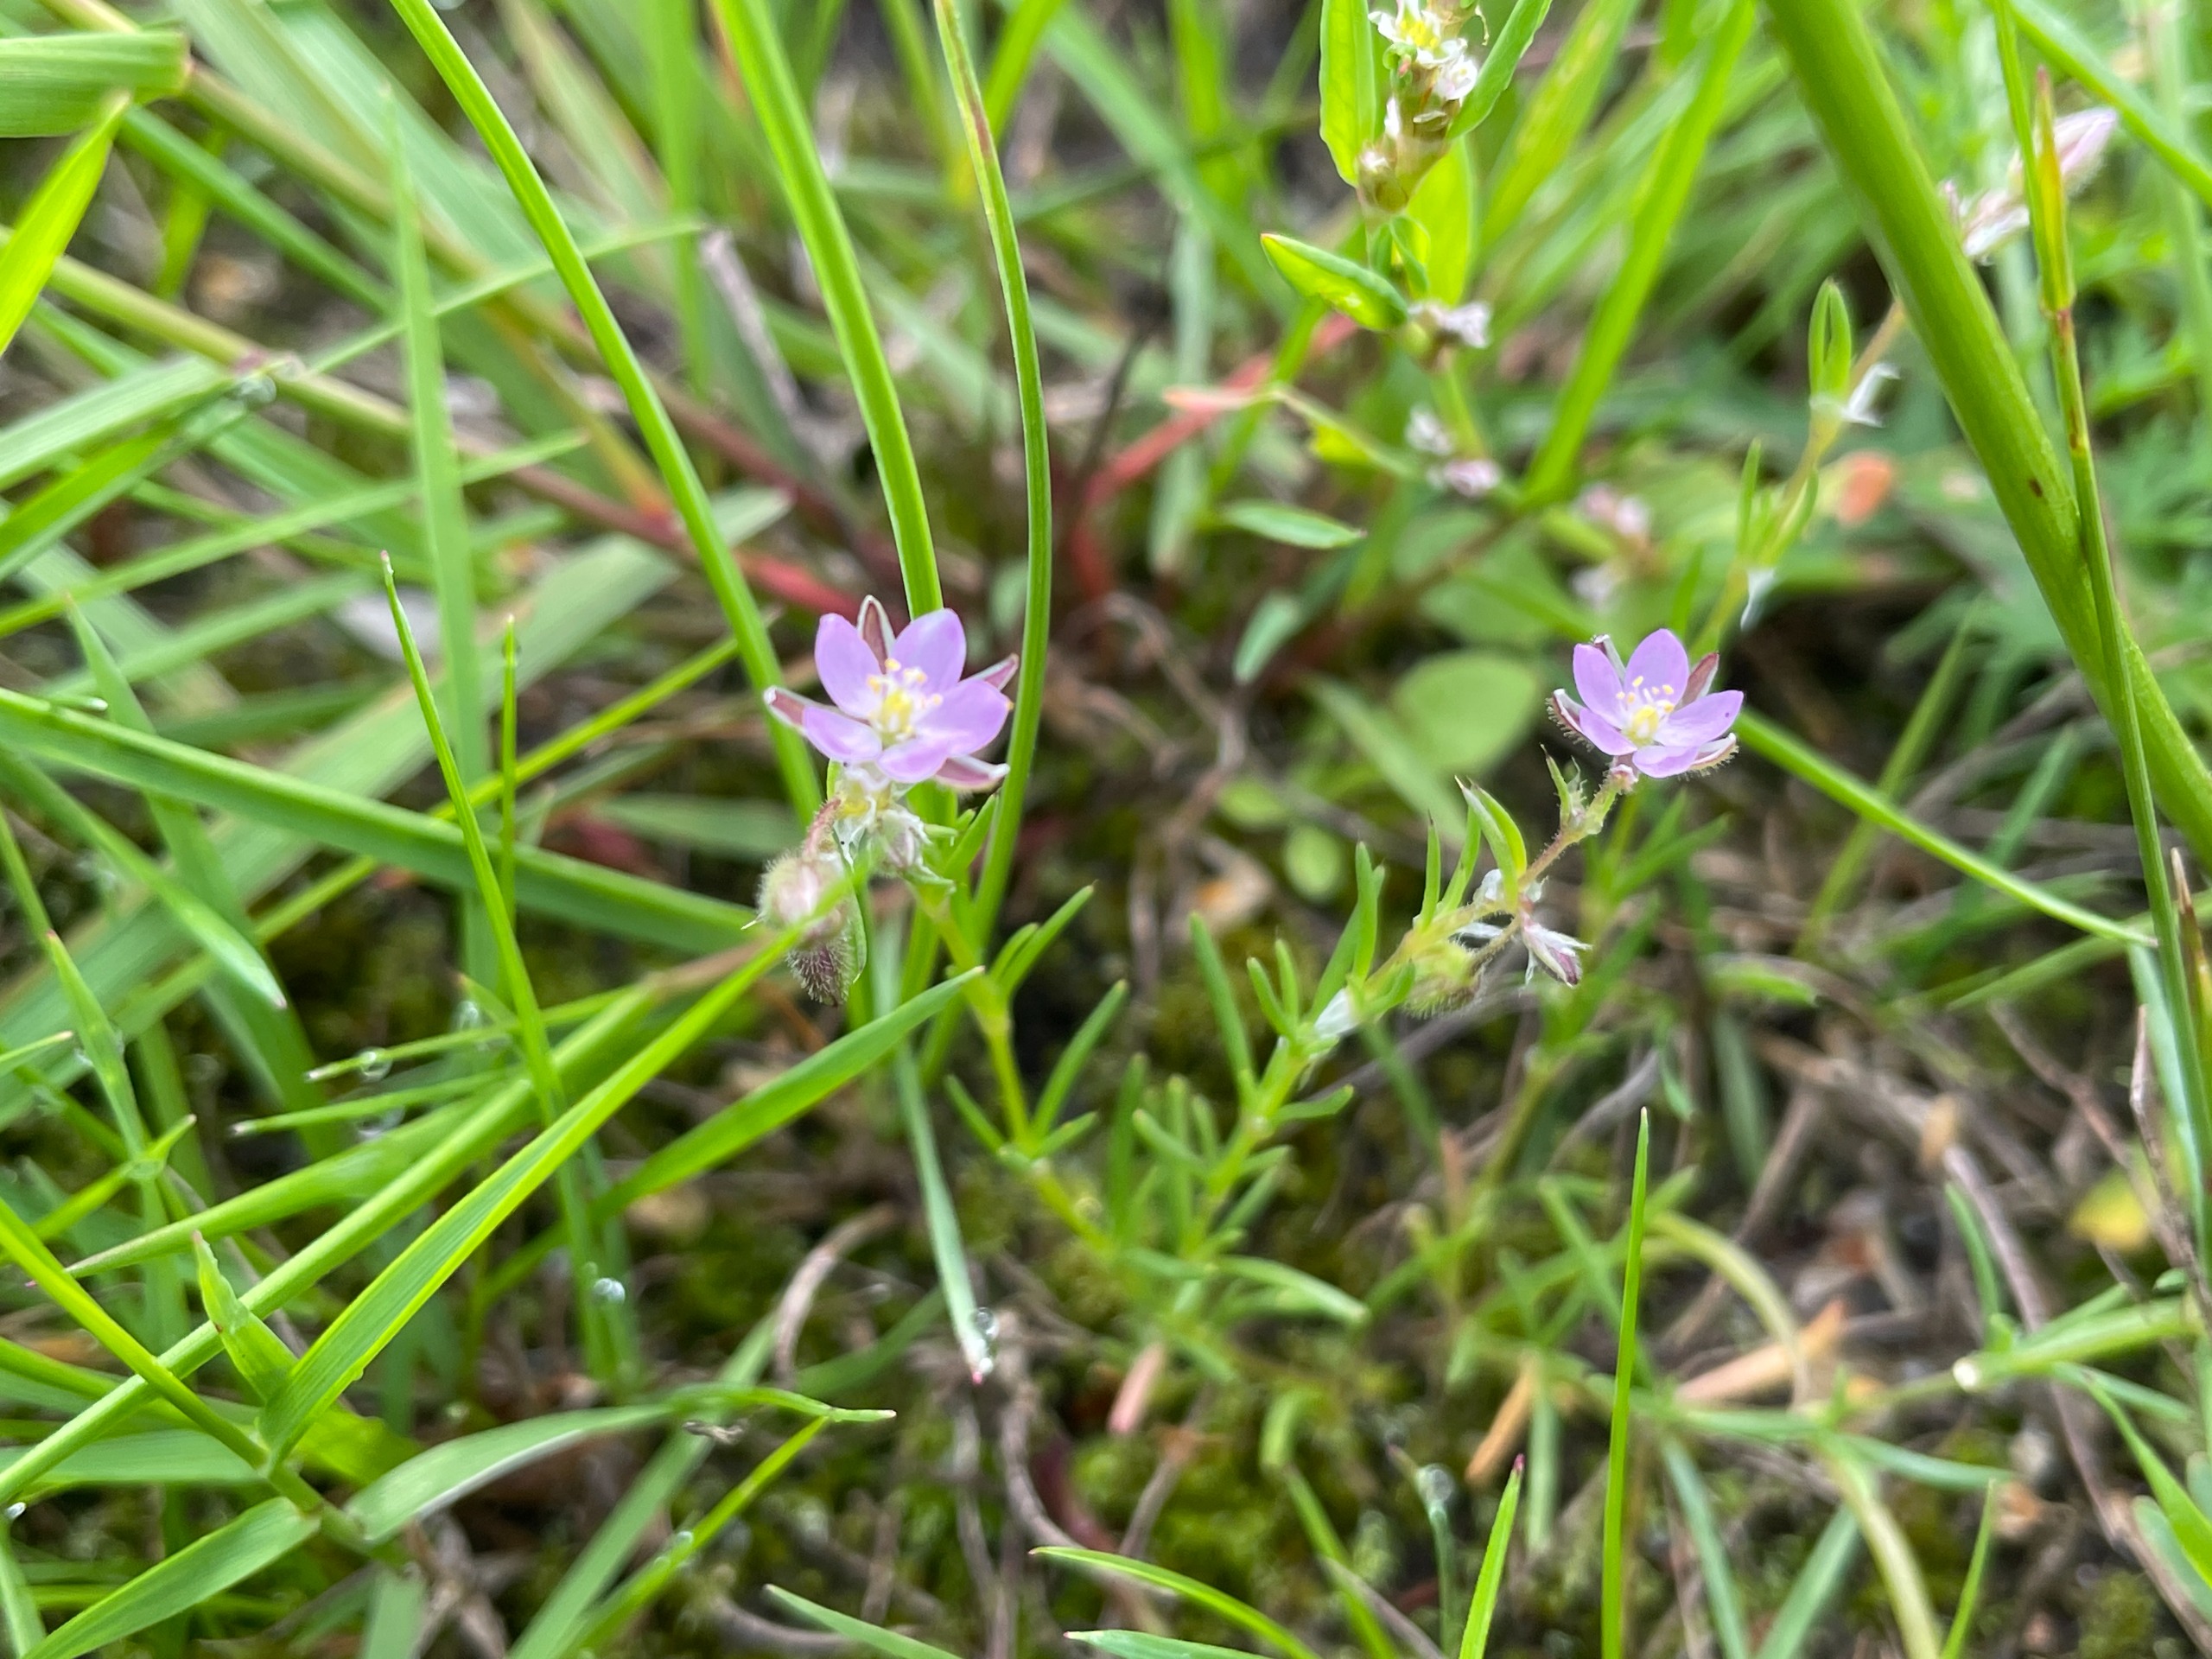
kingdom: Plantae
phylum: Tracheophyta
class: Magnoliopsida
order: Caryophyllales
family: Caryophyllaceae
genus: Spergularia
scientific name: Spergularia rubra
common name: Mark-hindeknæ
